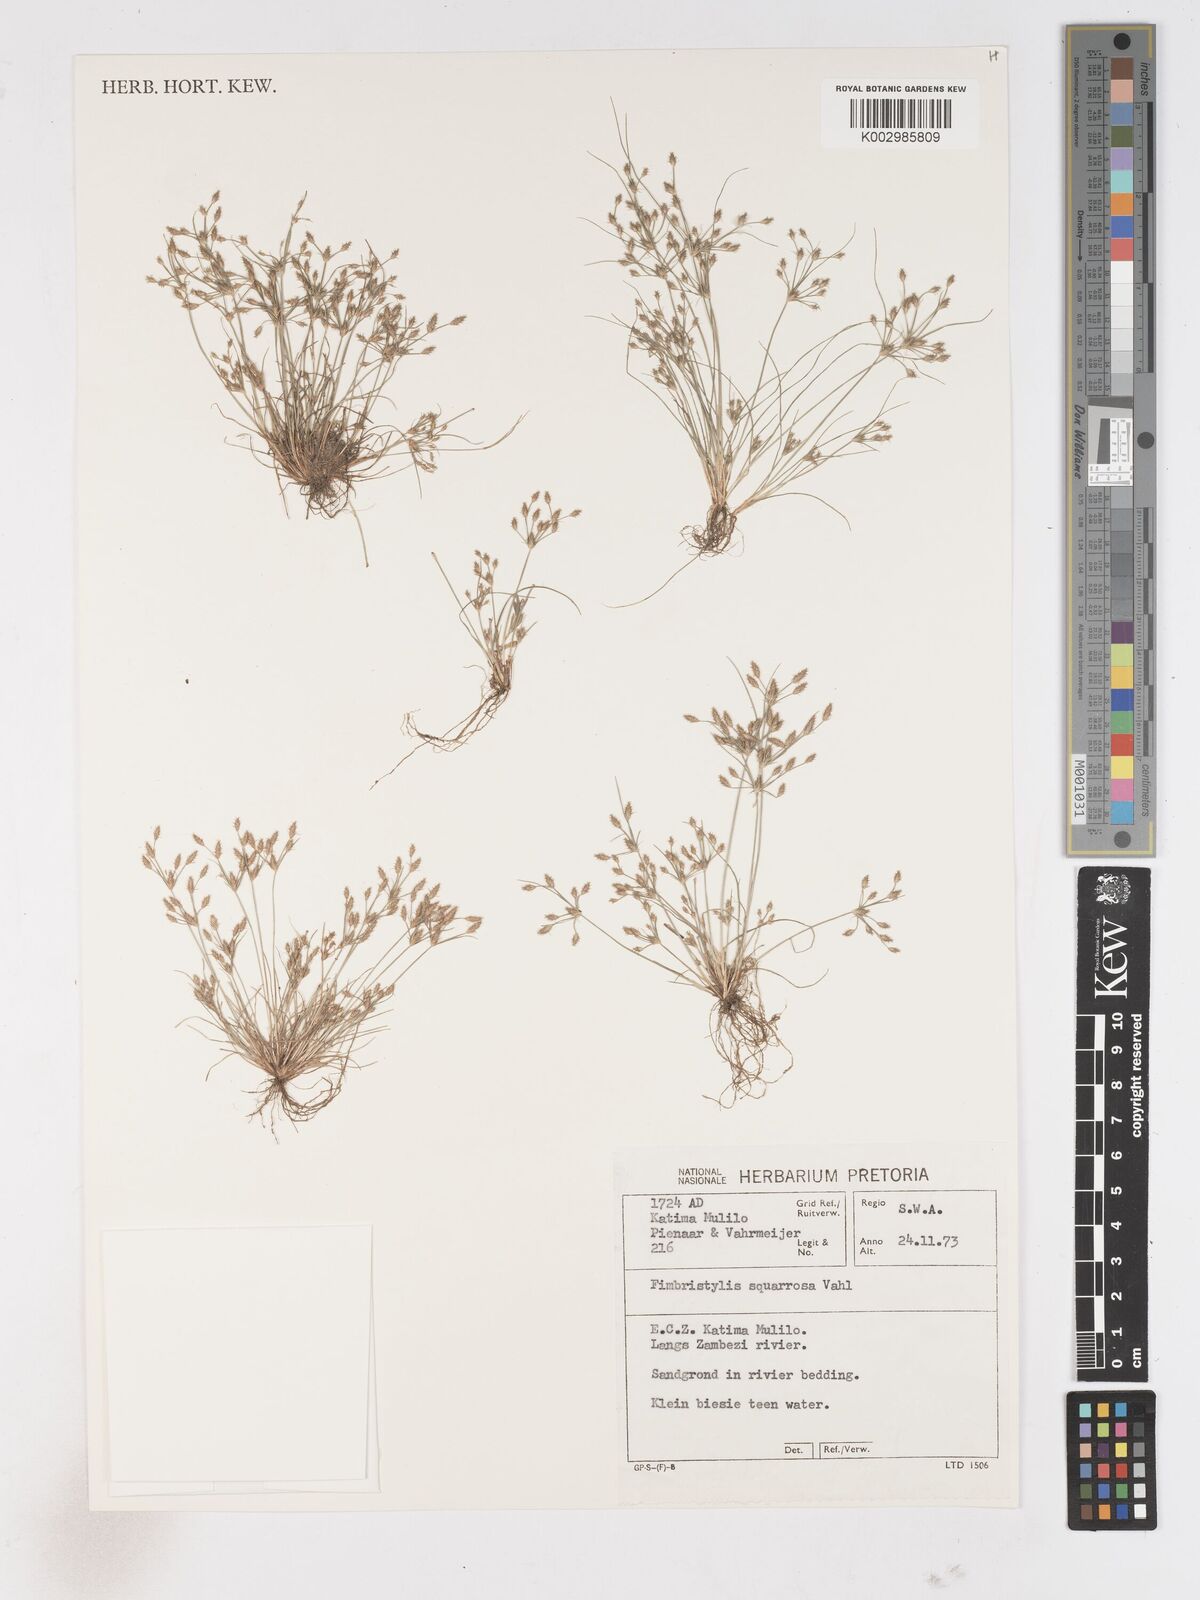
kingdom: Plantae
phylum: Tracheophyta
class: Liliopsida
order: Poales
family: Cyperaceae
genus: Fimbristylis
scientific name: Fimbristylis squarrosa
